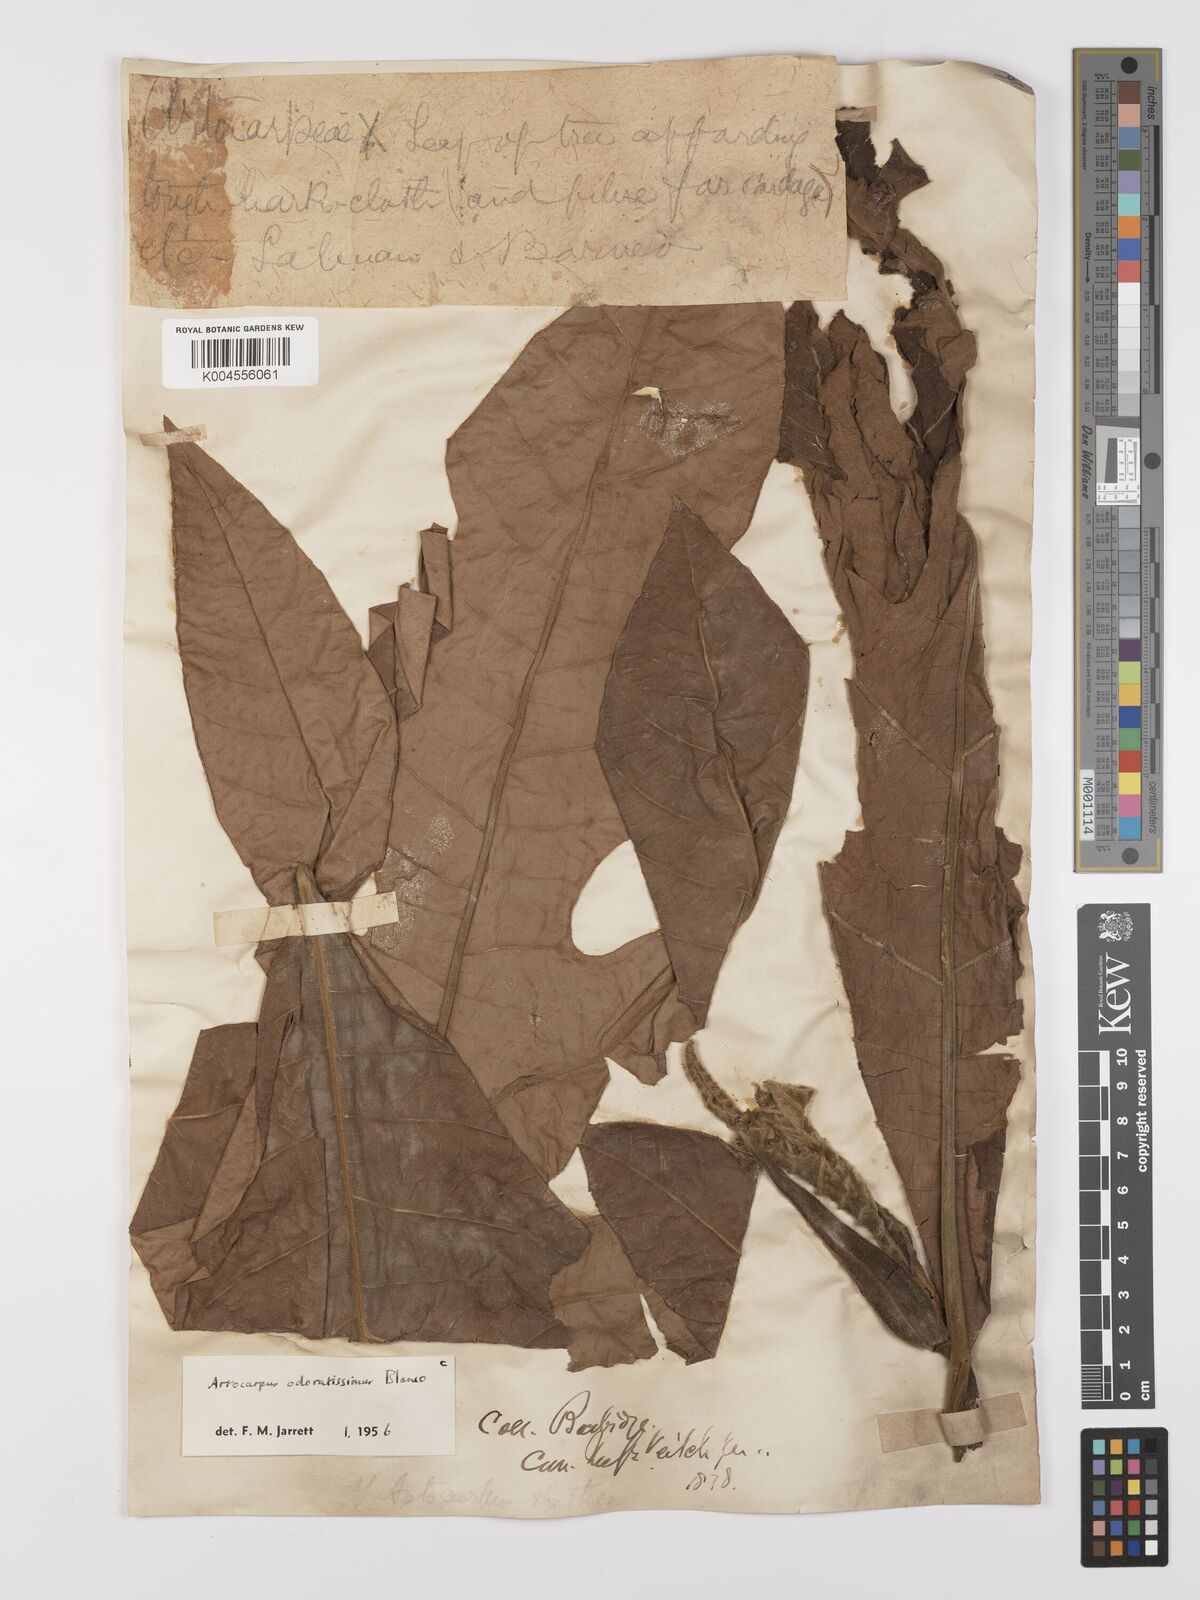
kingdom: Plantae
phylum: Tracheophyta
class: Magnoliopsida
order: Rosales
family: Moraceae
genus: Artocarpus
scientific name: Artocarpus odoratissimus
